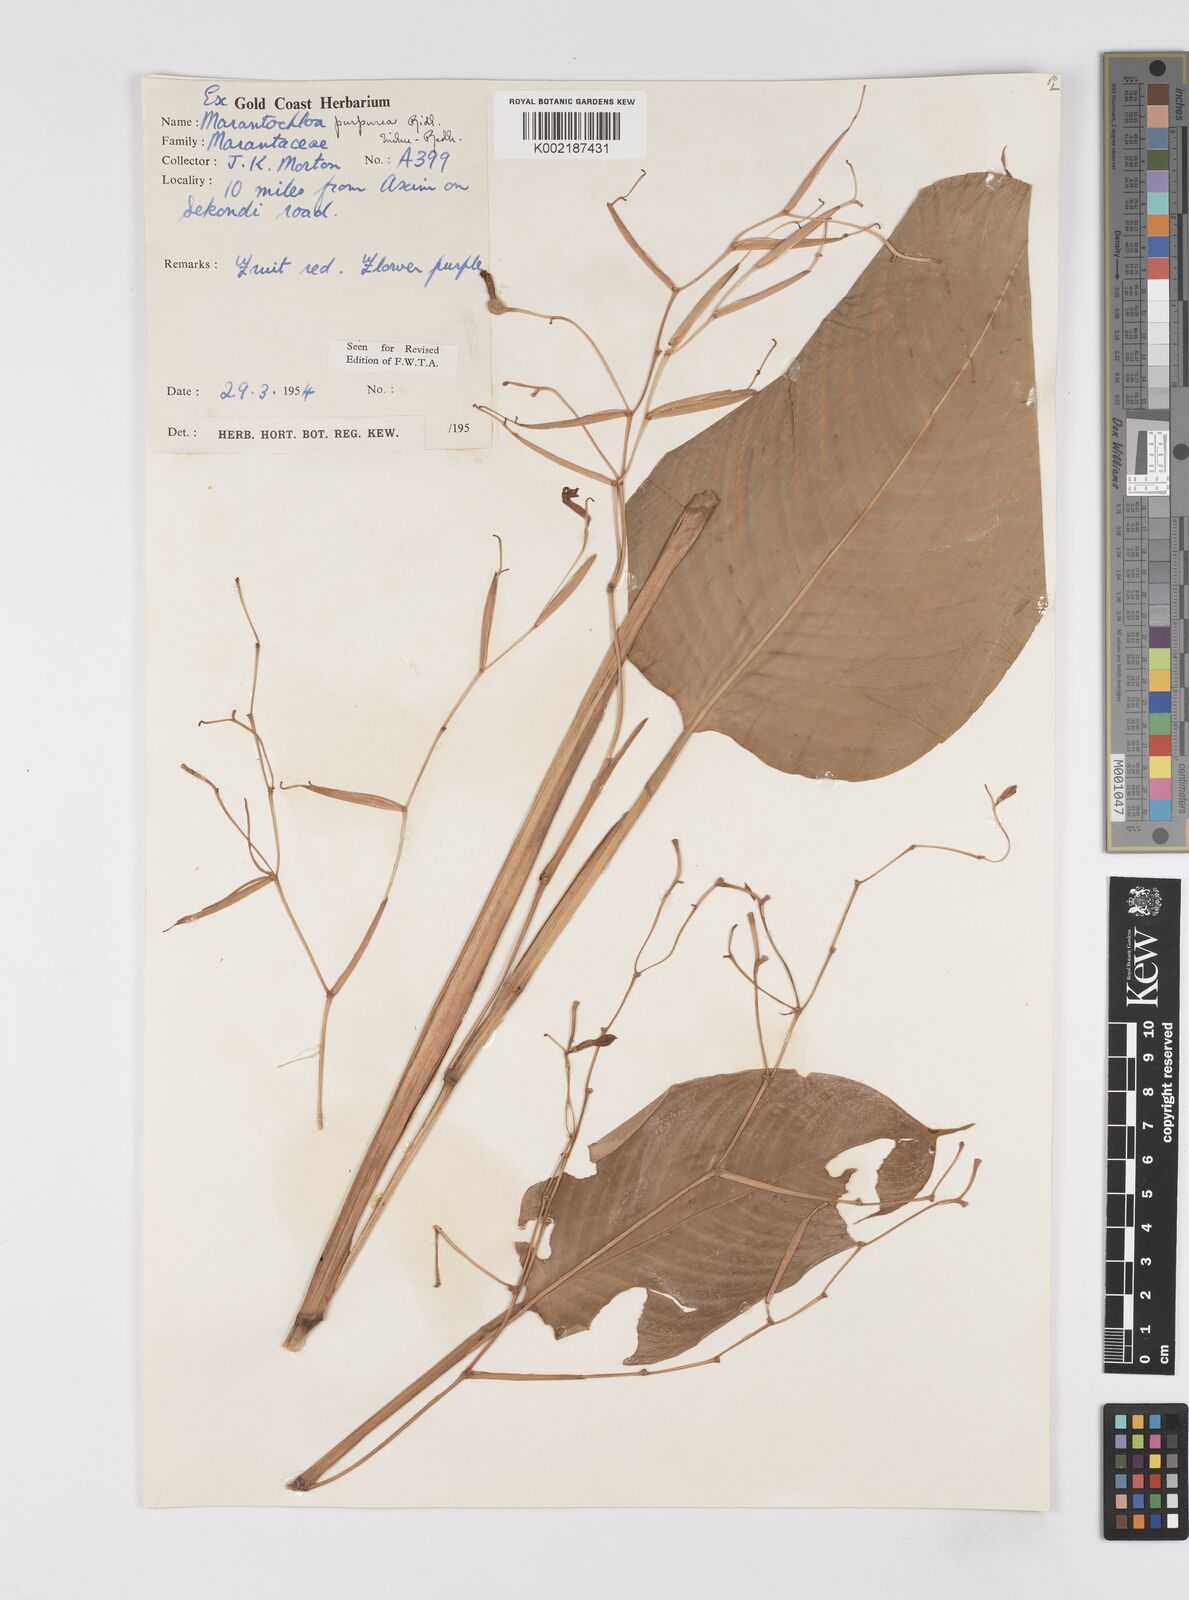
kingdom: Plantae
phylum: Tracheophyta
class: Liliopsida
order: Zingiberales
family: Marantaceae
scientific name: Marantaceae
